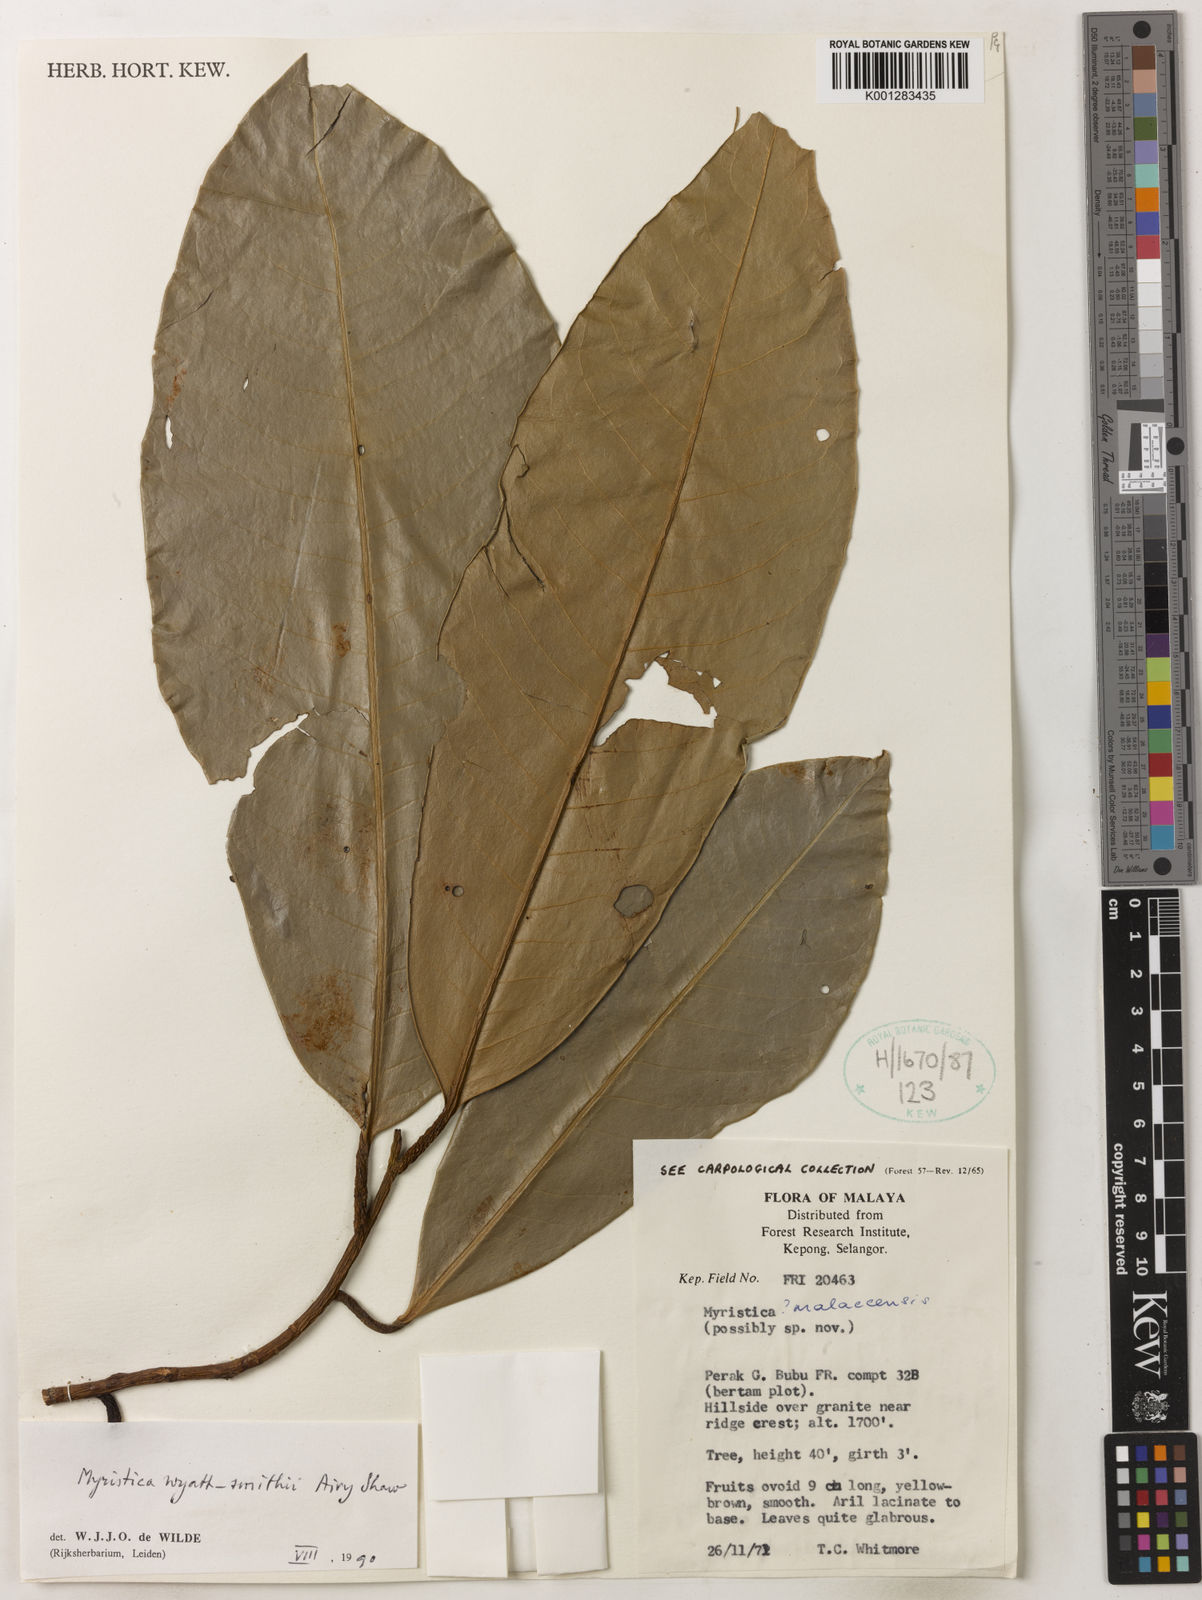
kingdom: Plantae
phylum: Tracheophyta
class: Magnoliopsida
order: Magnoliales
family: Myristicaceae
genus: Myristica
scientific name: Myristica wyatt-smithii
